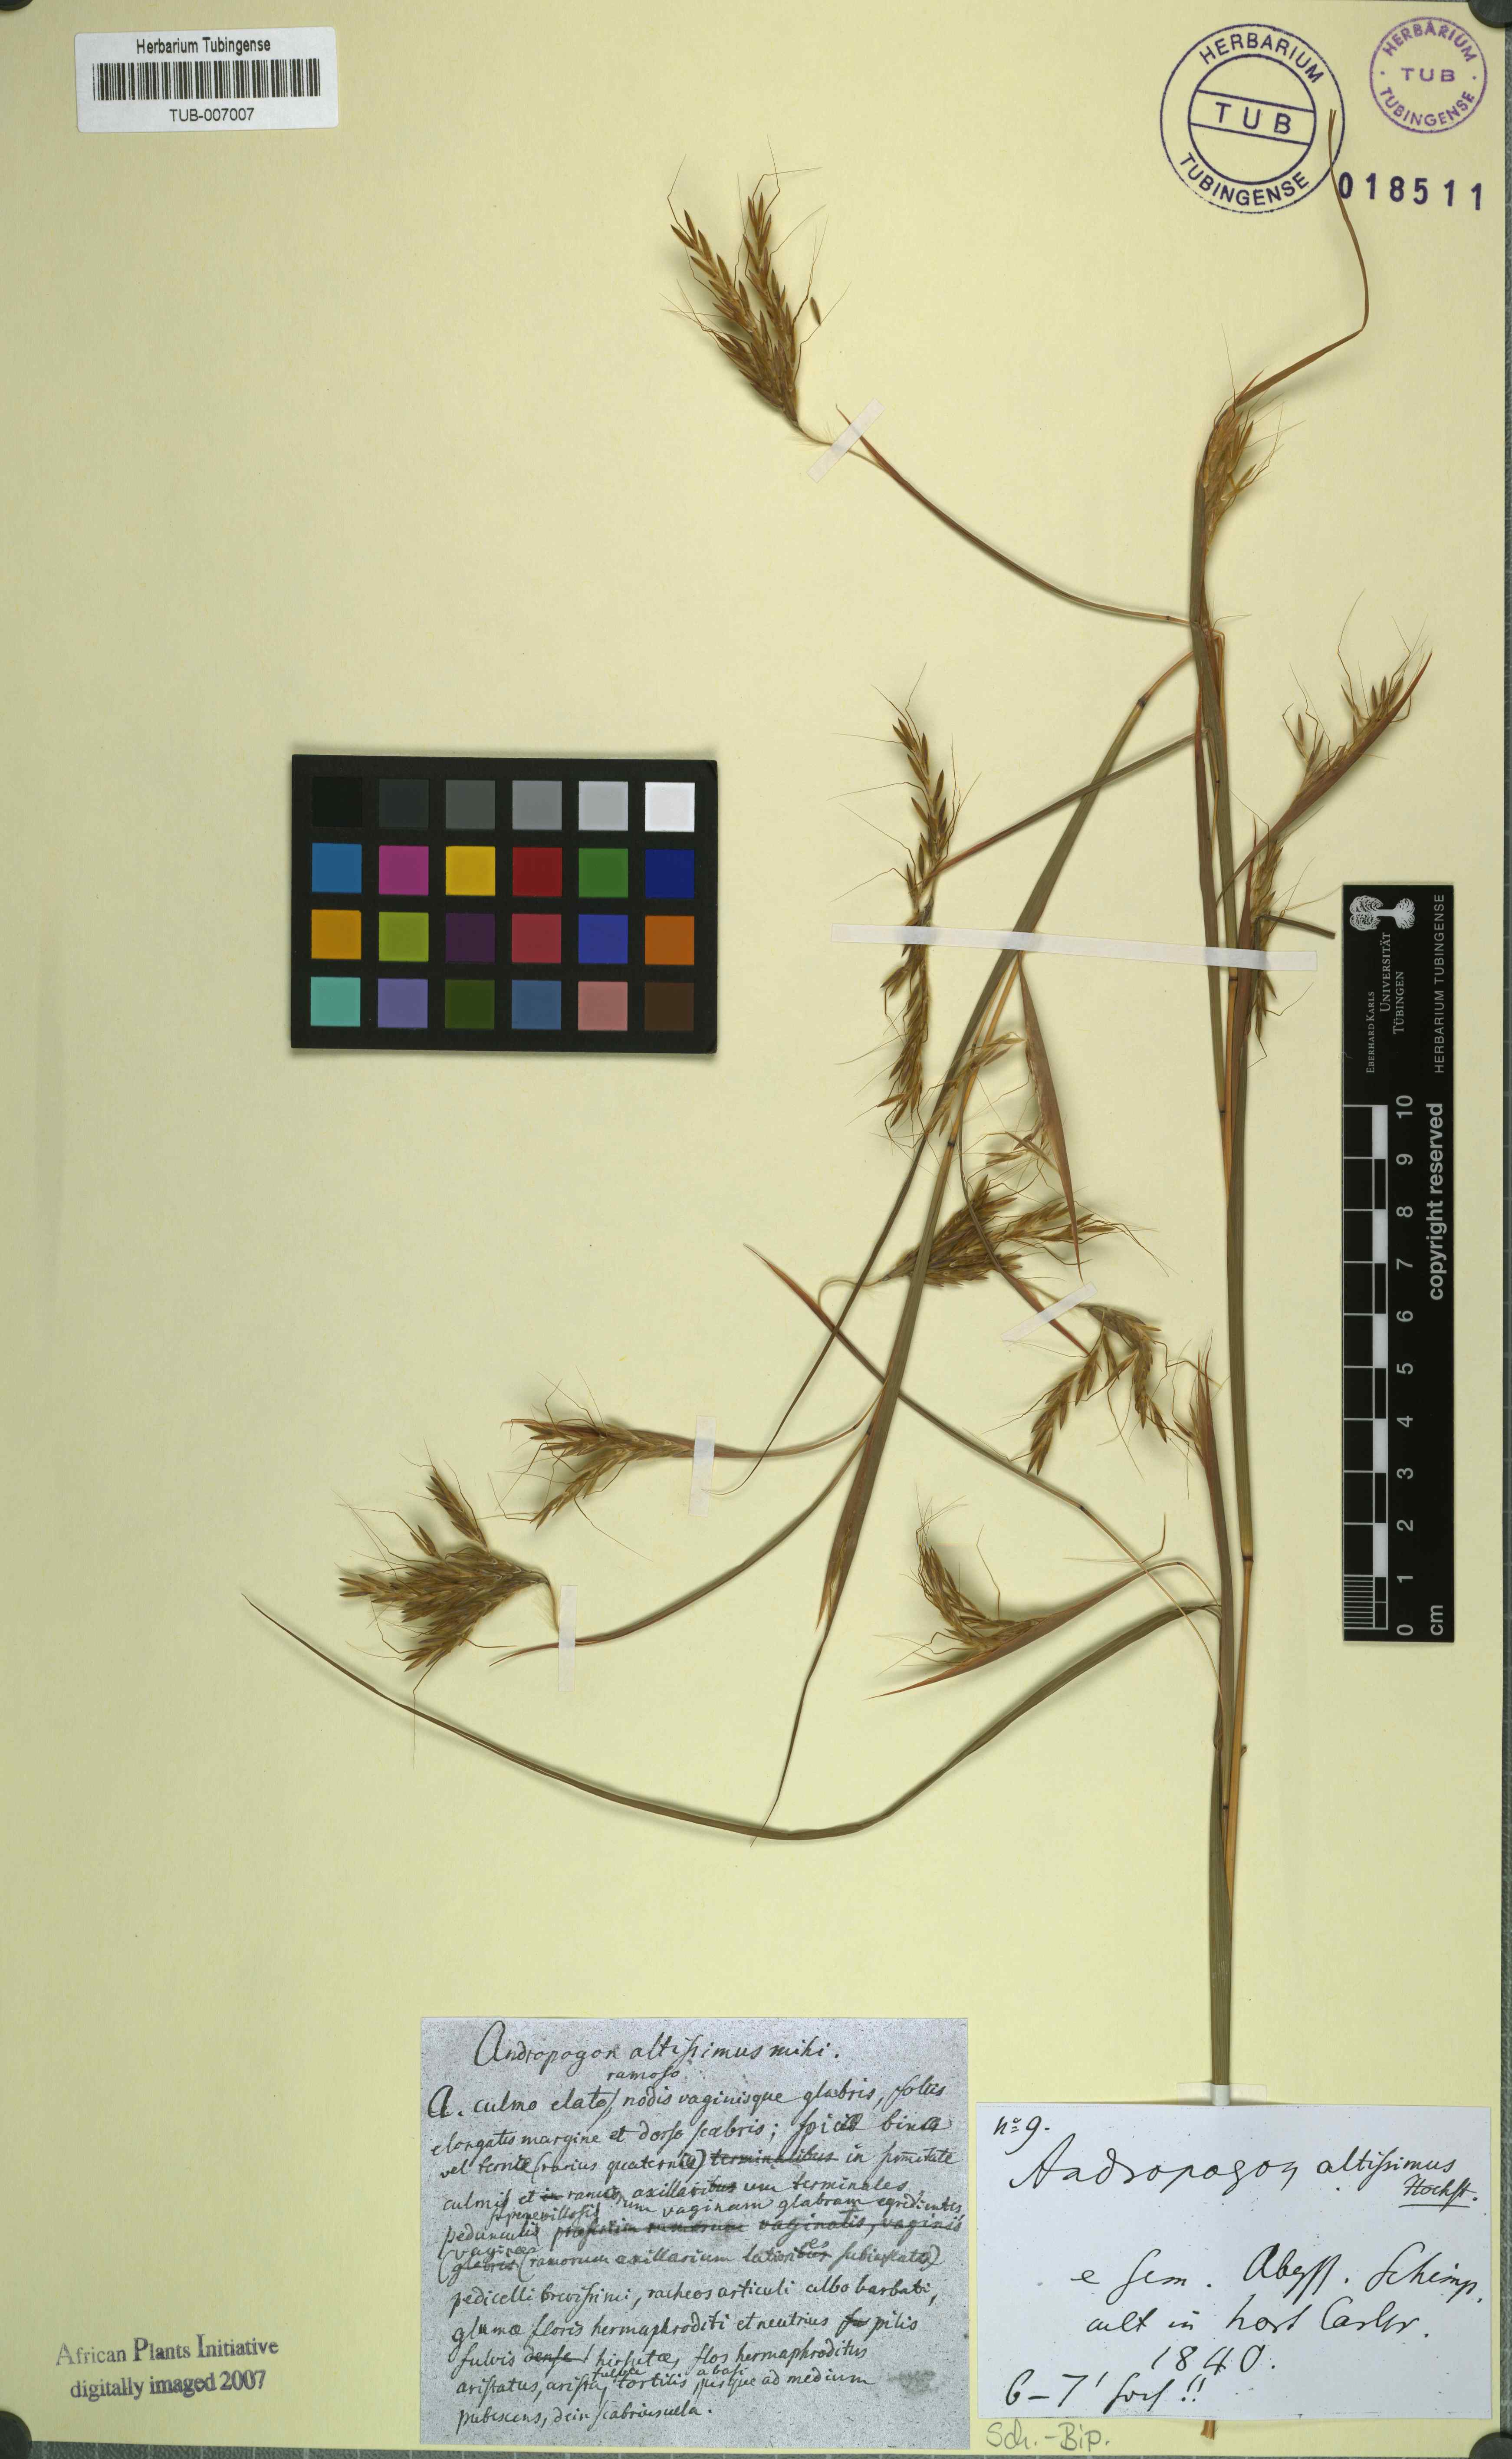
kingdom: Plantae
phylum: Tracheophyta
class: Liliopsida
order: Poales
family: Poaceae
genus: Hyparrhenia
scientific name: Hyparrhenia rufa
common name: Jaraguagrass
